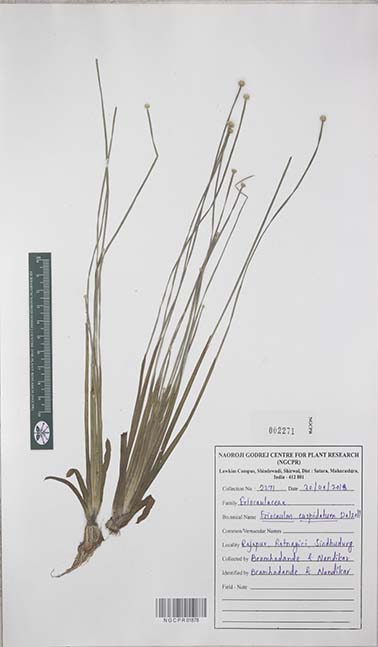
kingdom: Plantae
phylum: Tracheophyta
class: Liliopsida
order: Poales
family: Eriocaulaceae
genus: Eriocaulon
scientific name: Eriocaulon cuspidatum
